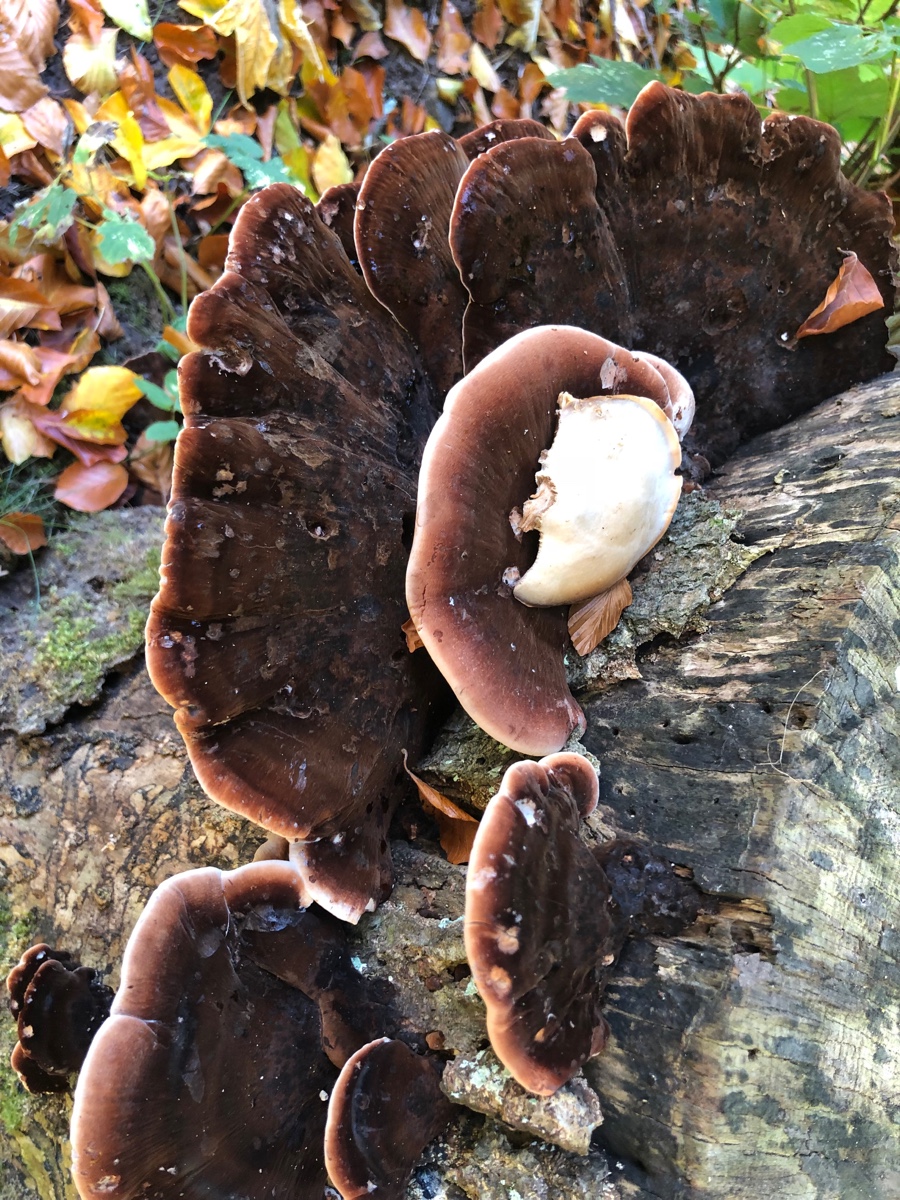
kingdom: Fungi
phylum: Basidiomycota
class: Agaricomycetes
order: Polyporales
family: Ischnodermataceae
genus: Ischnoderma
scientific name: Ischnoderma resinosum
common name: løv-tjæreporesvamp
